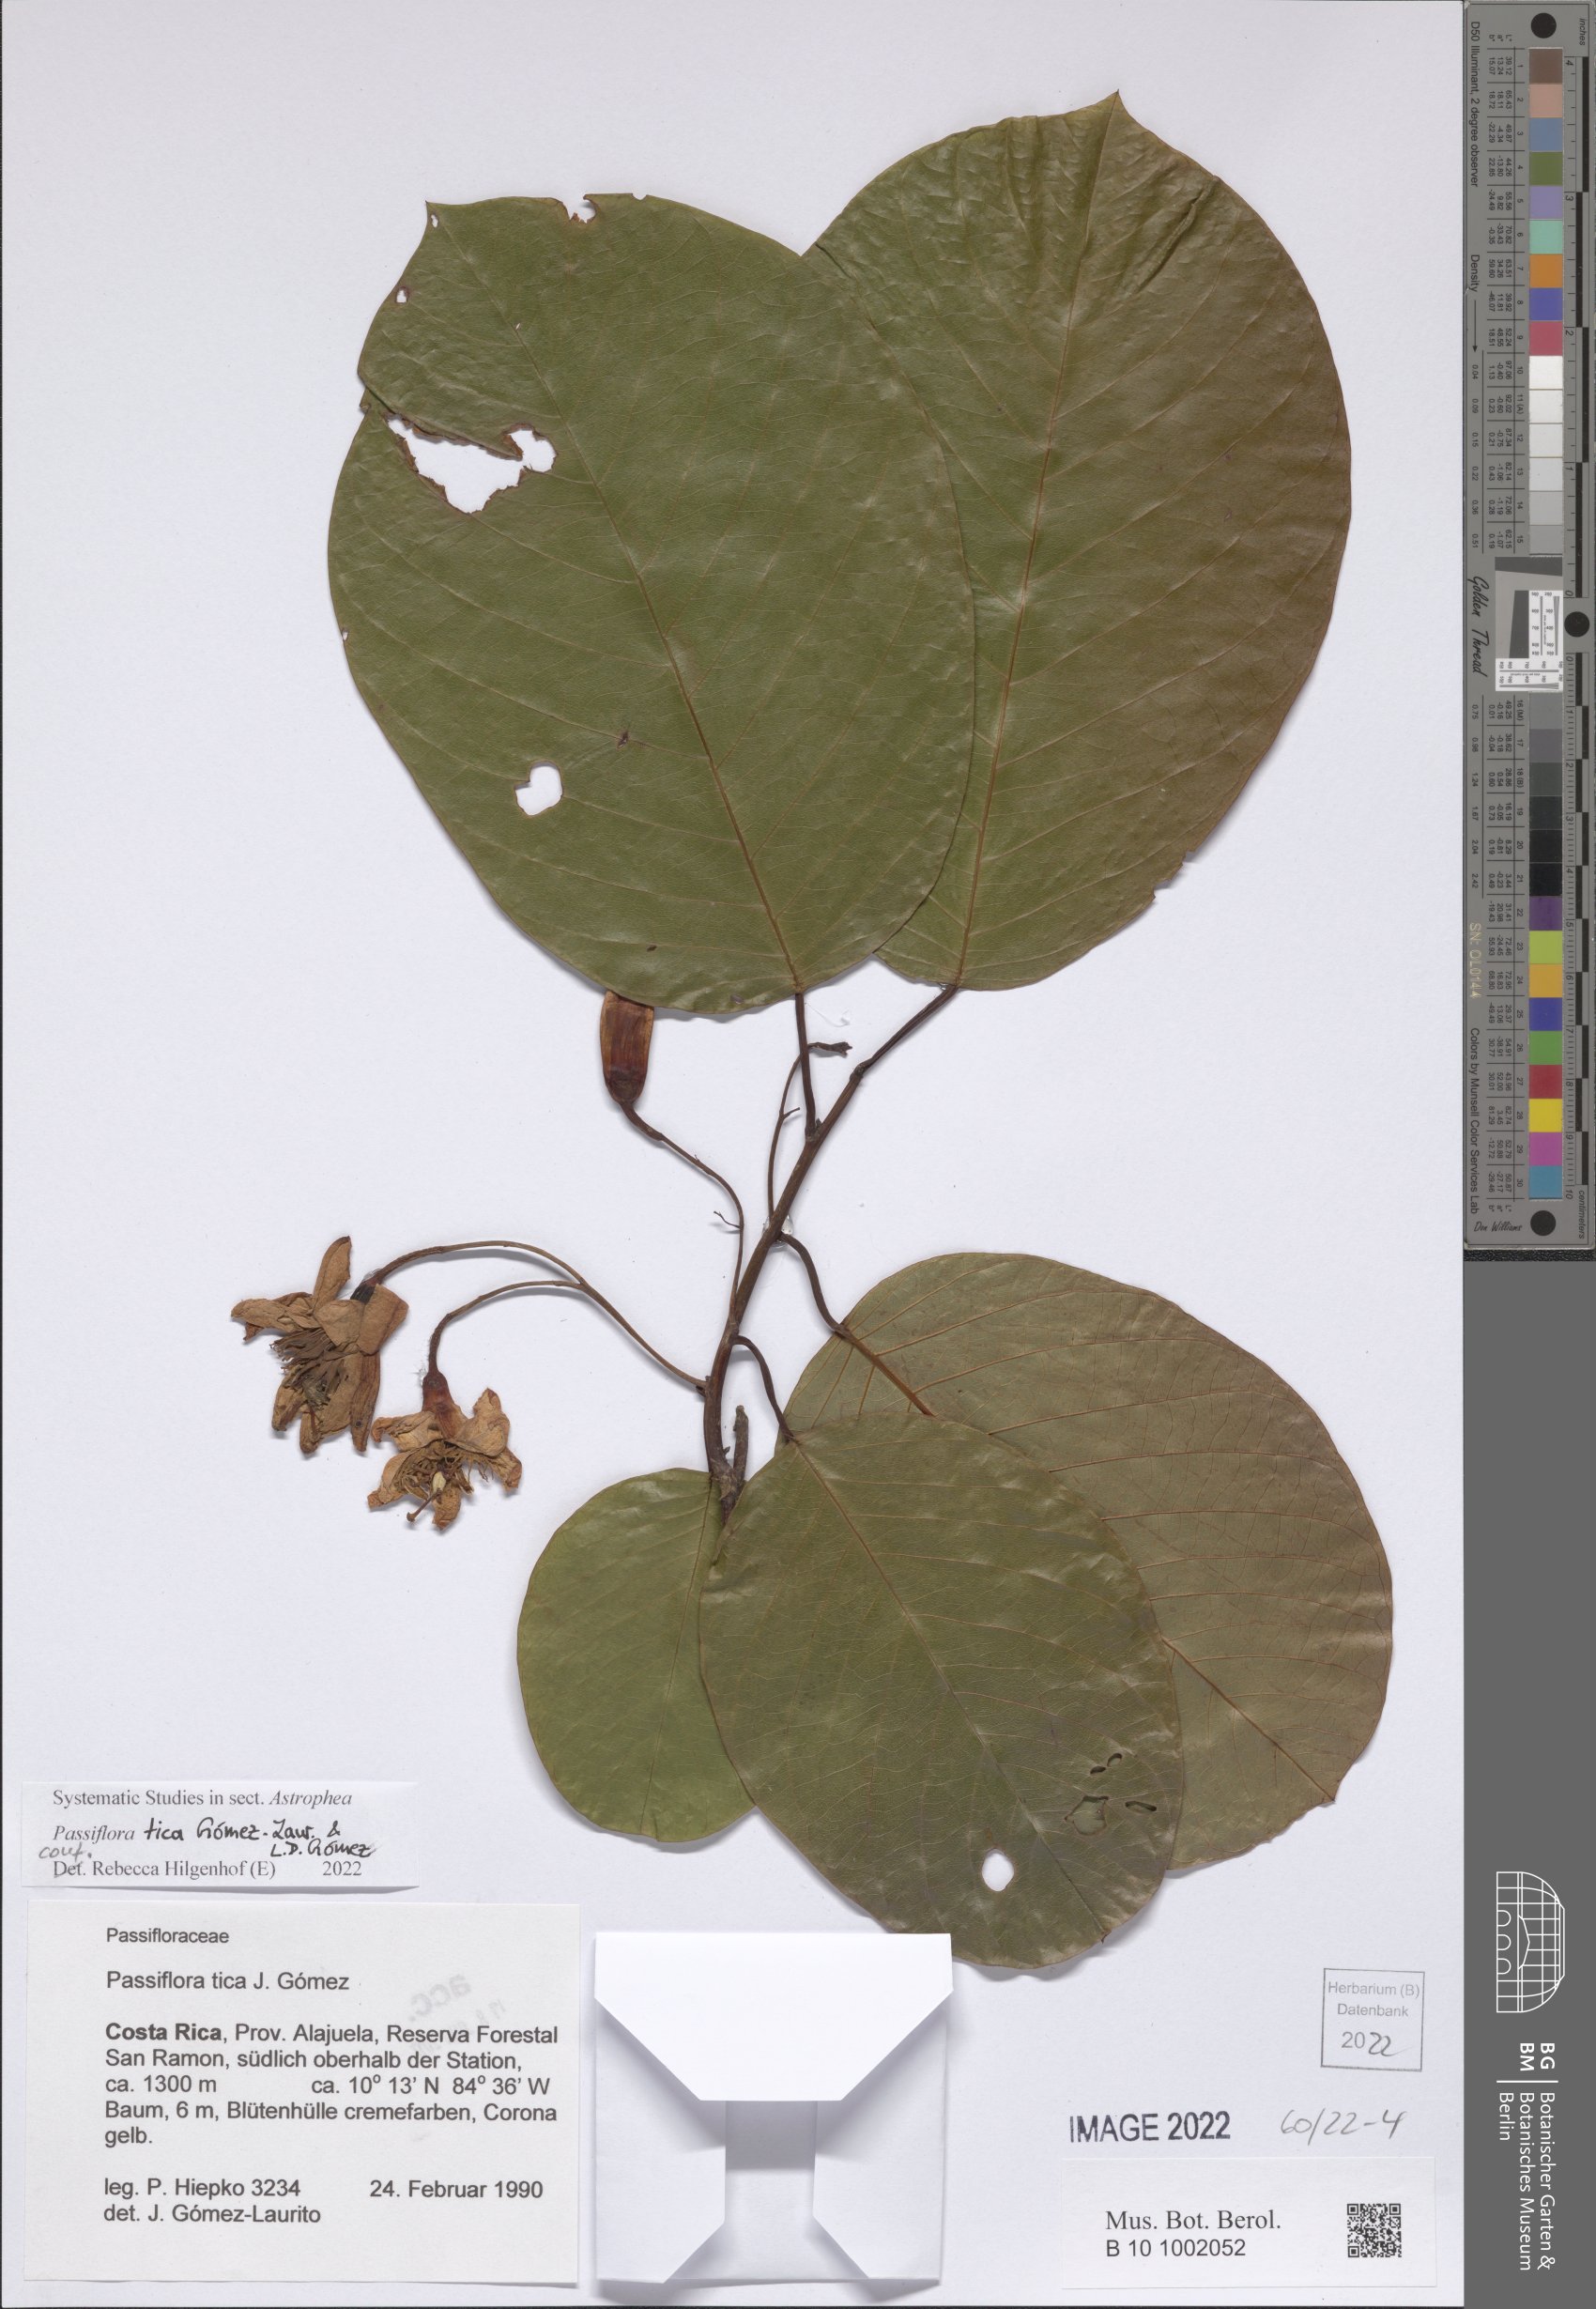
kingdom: Plantae
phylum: Tracheophyta
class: Magnoliopsida
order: Malpighiales
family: Passifloraceae
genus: Passiflora
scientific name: Passiflora tica
